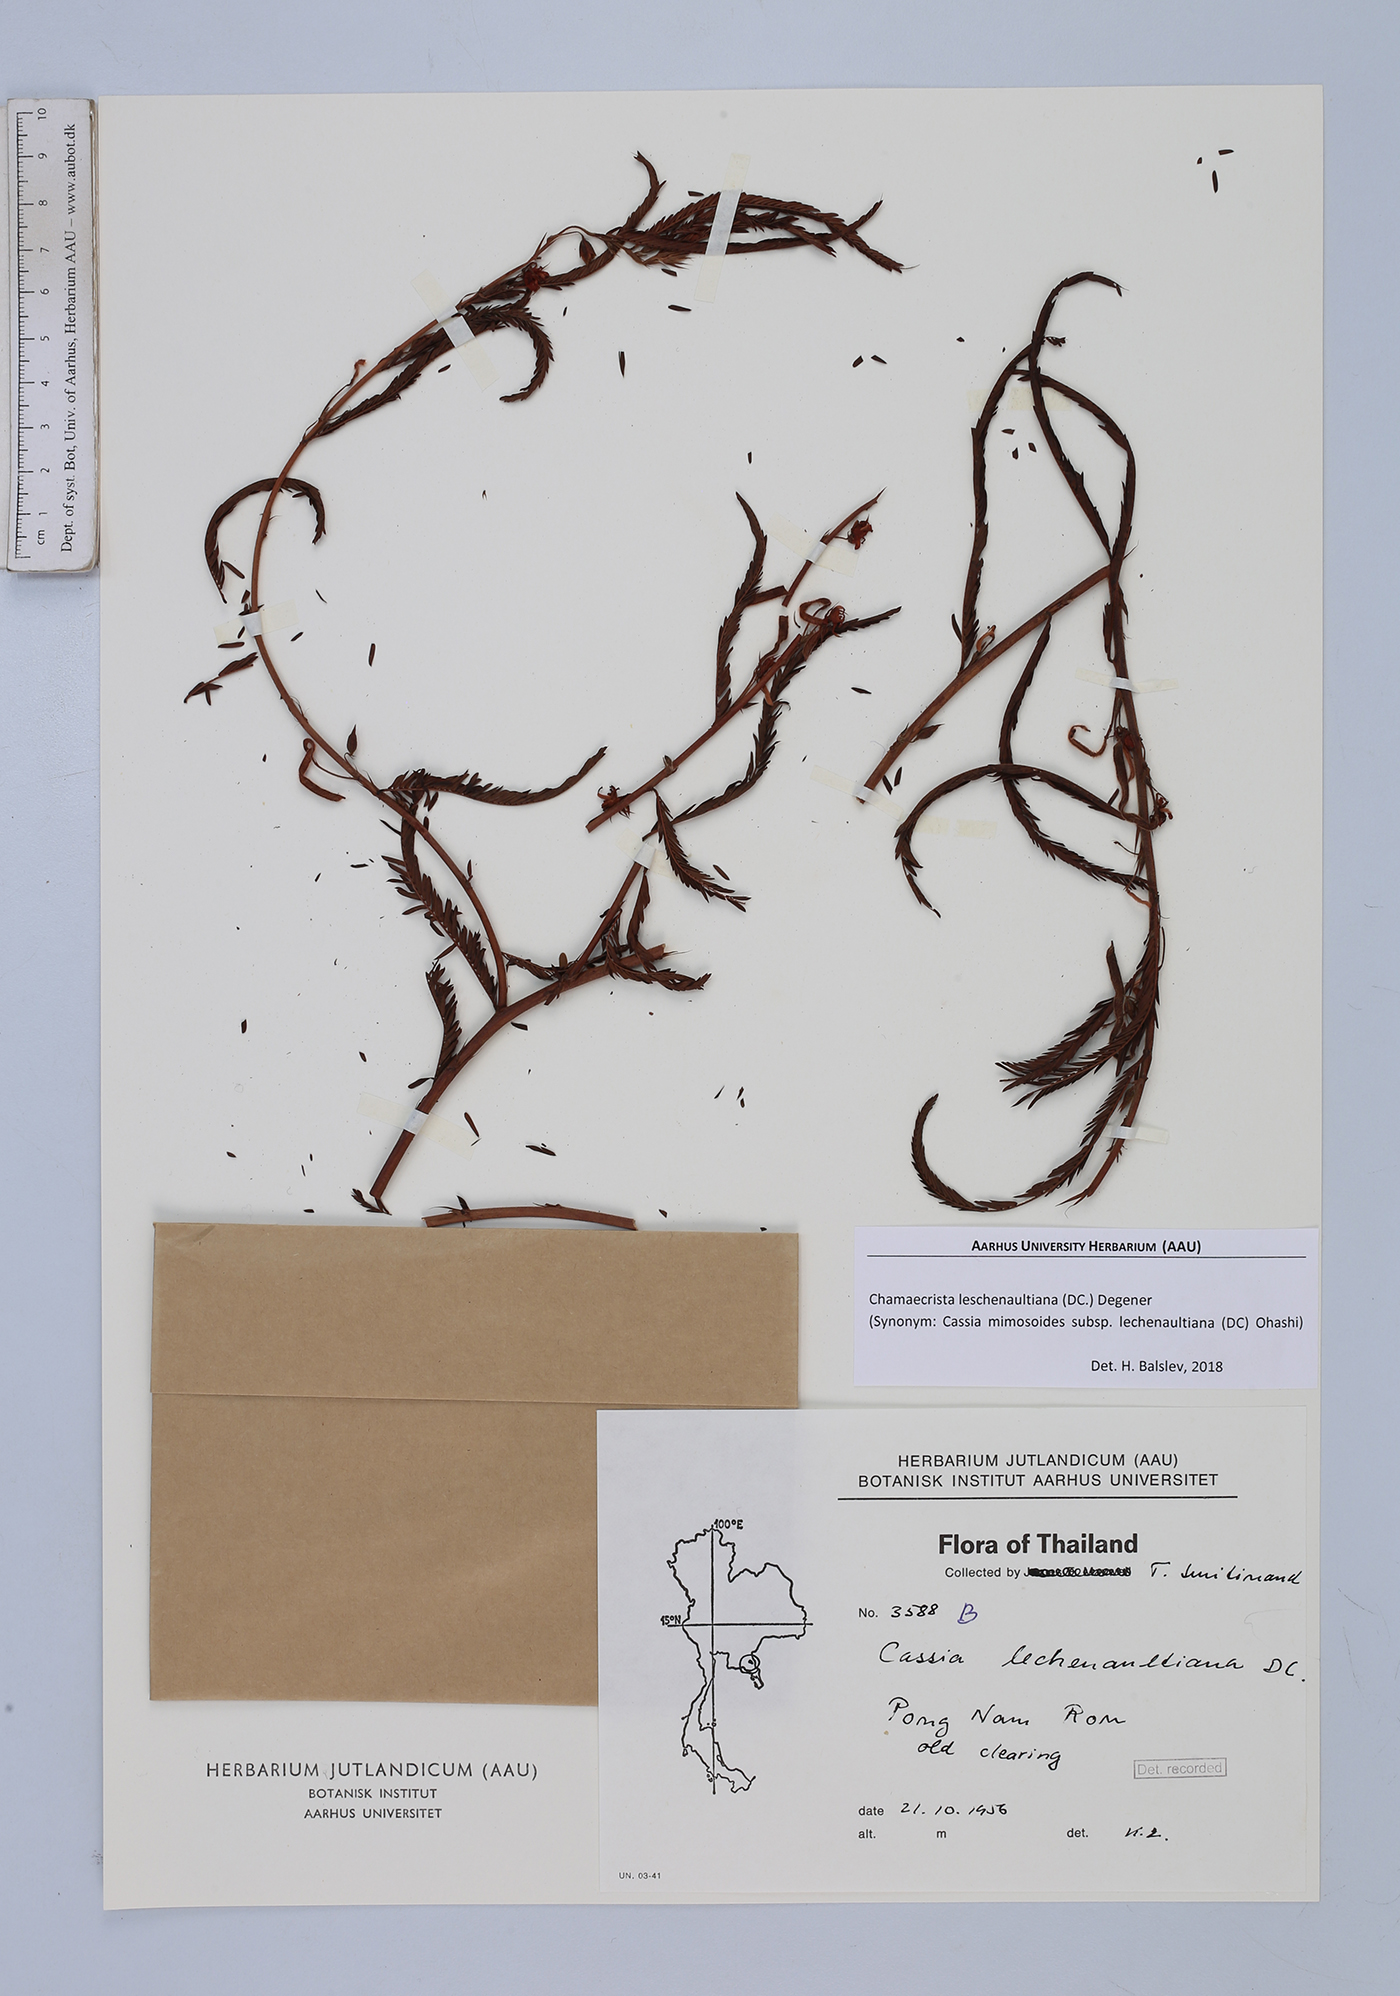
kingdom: Plantae
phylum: Tracheophyta
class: Magnoliopsida
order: Fabales
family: Fabaceae
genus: Chamaecrista
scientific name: Chamaecrista nictitans
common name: Sensitive cassia
